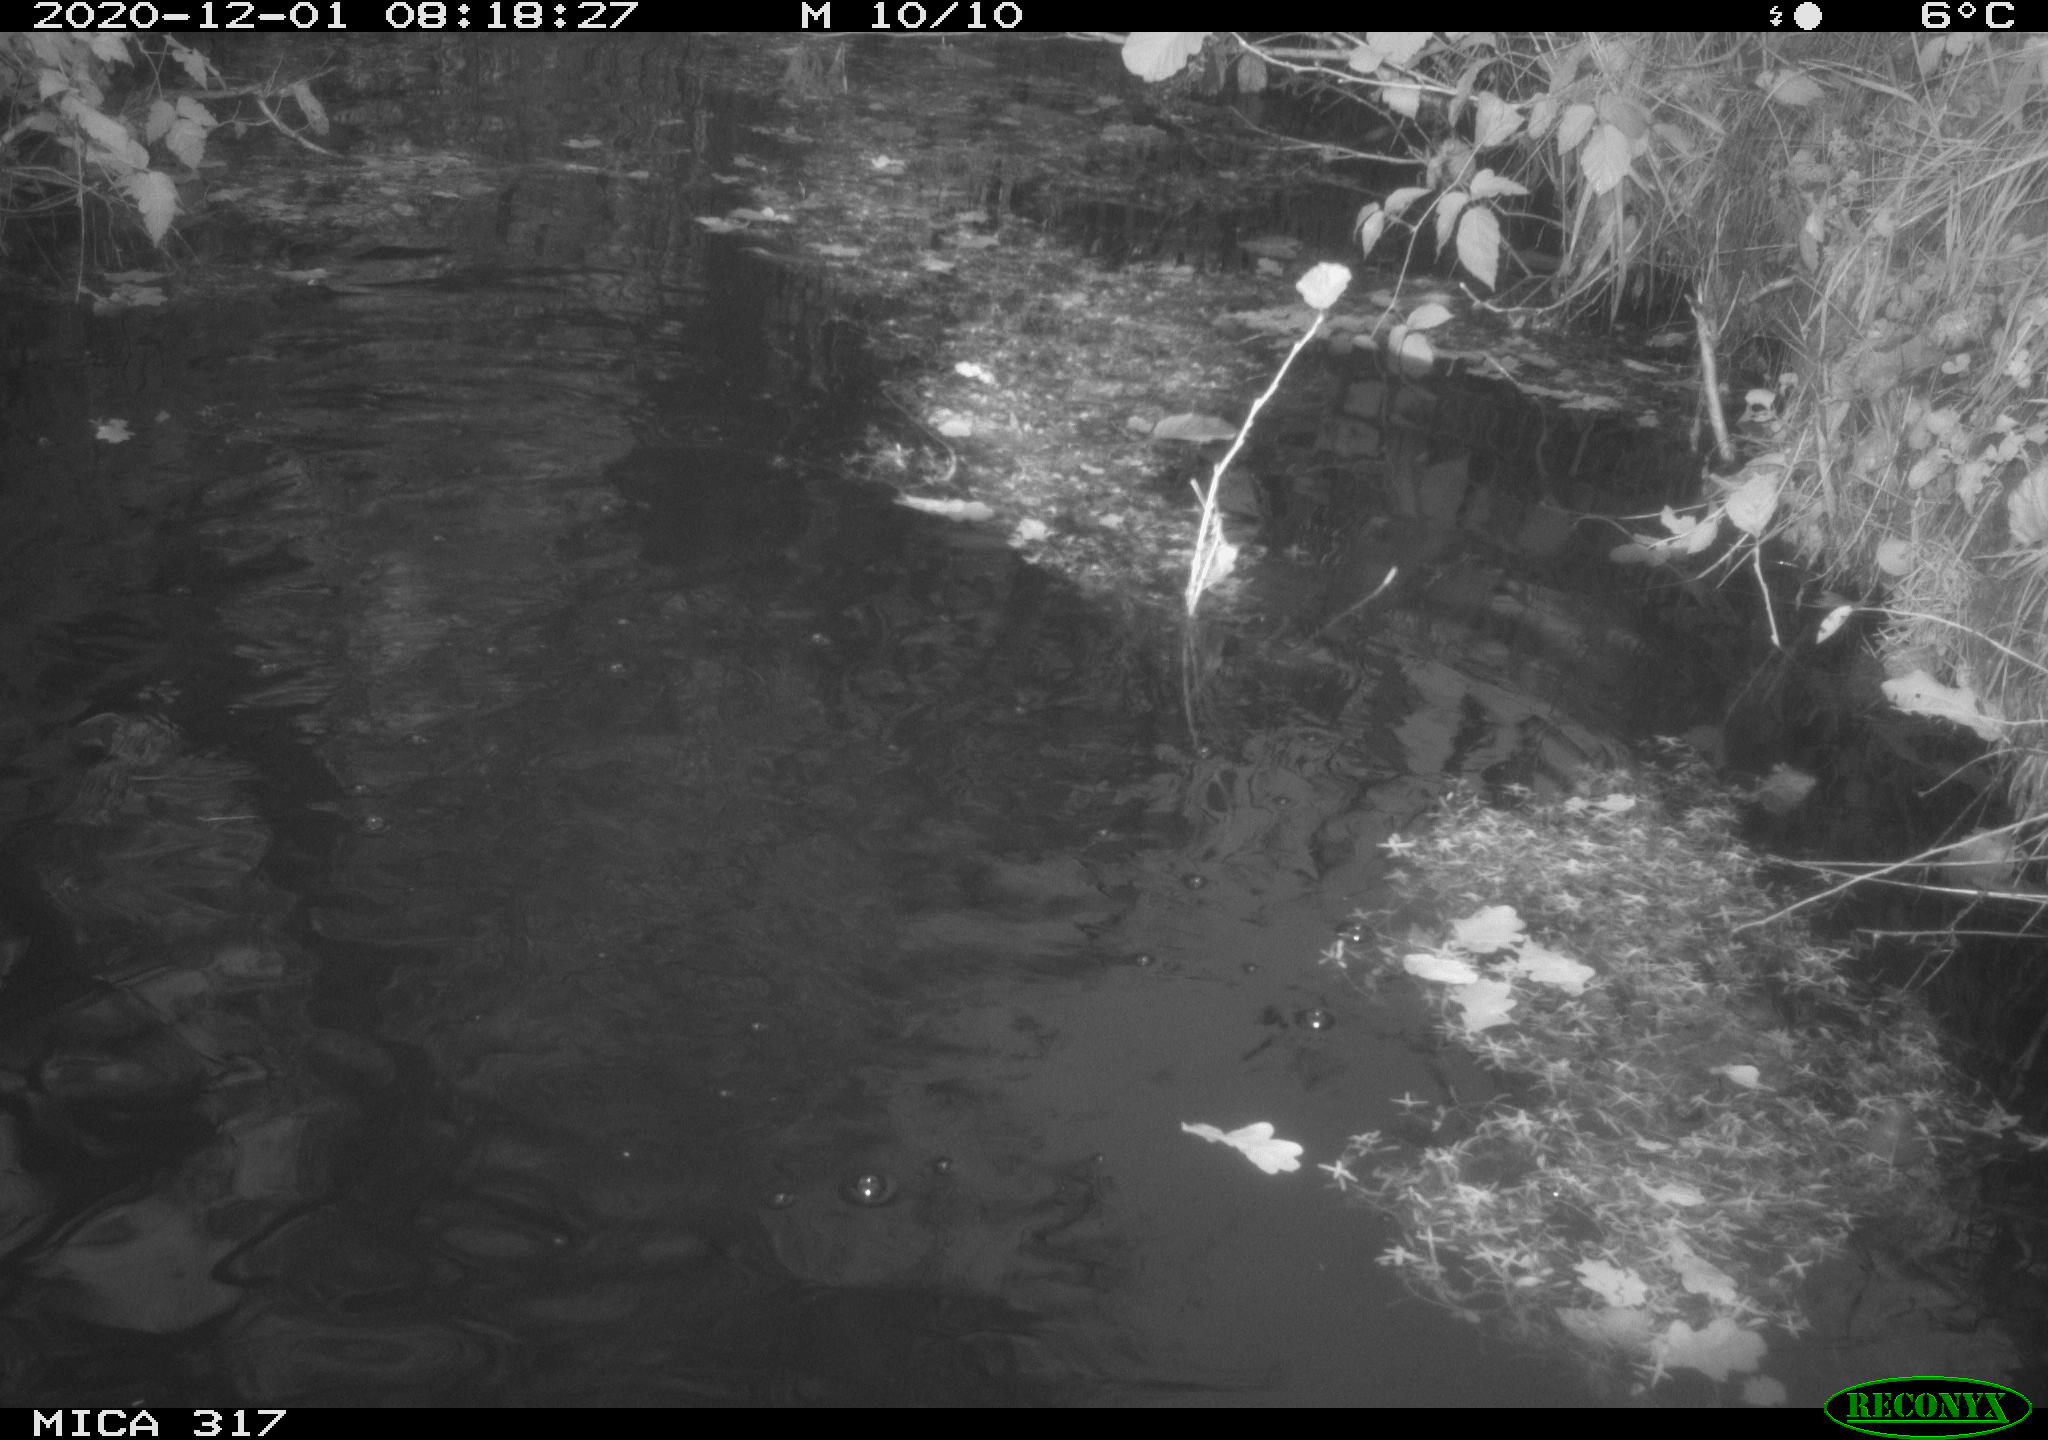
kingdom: Animalia
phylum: Chordata
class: Aves
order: Podicipediformes
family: Podicipedidae
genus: Tachybaptus
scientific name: Tachybaptus ruficollis
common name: Little grebe
